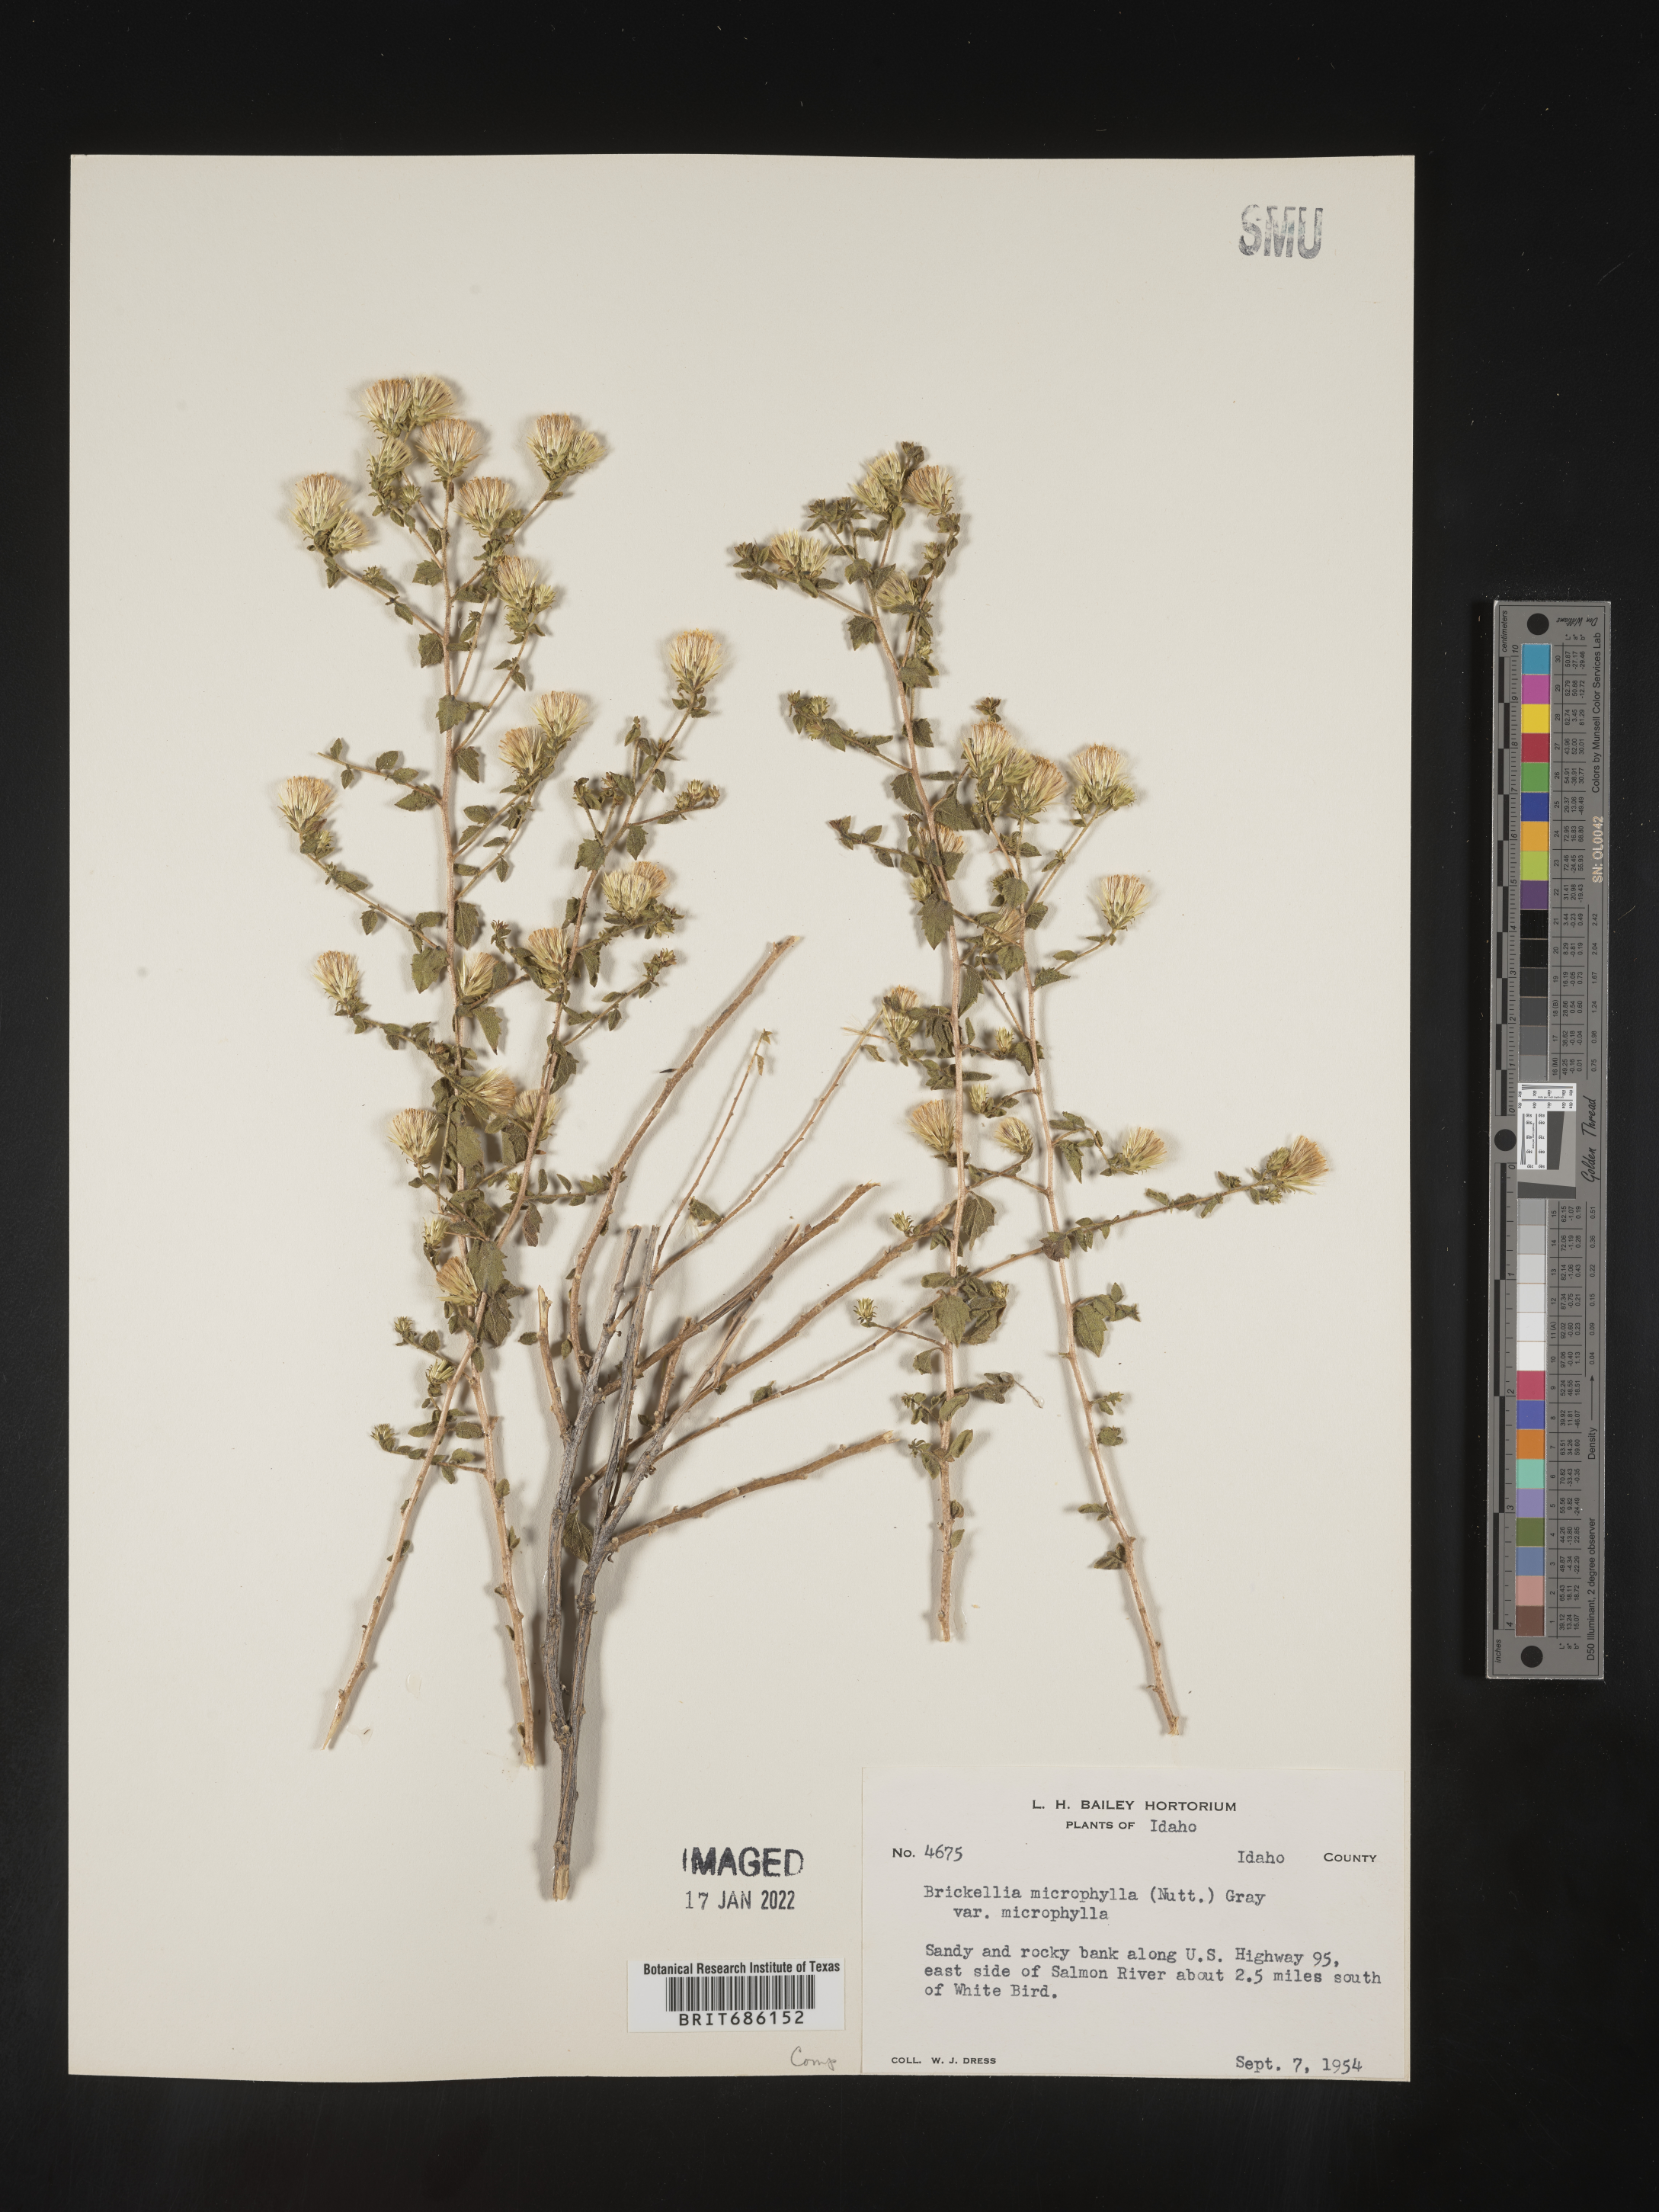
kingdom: Plantae
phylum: Tracheophyta
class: Magnoliopsida
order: Asterales
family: Asteraceae
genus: Brickellia
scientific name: Brickellia microphylla
